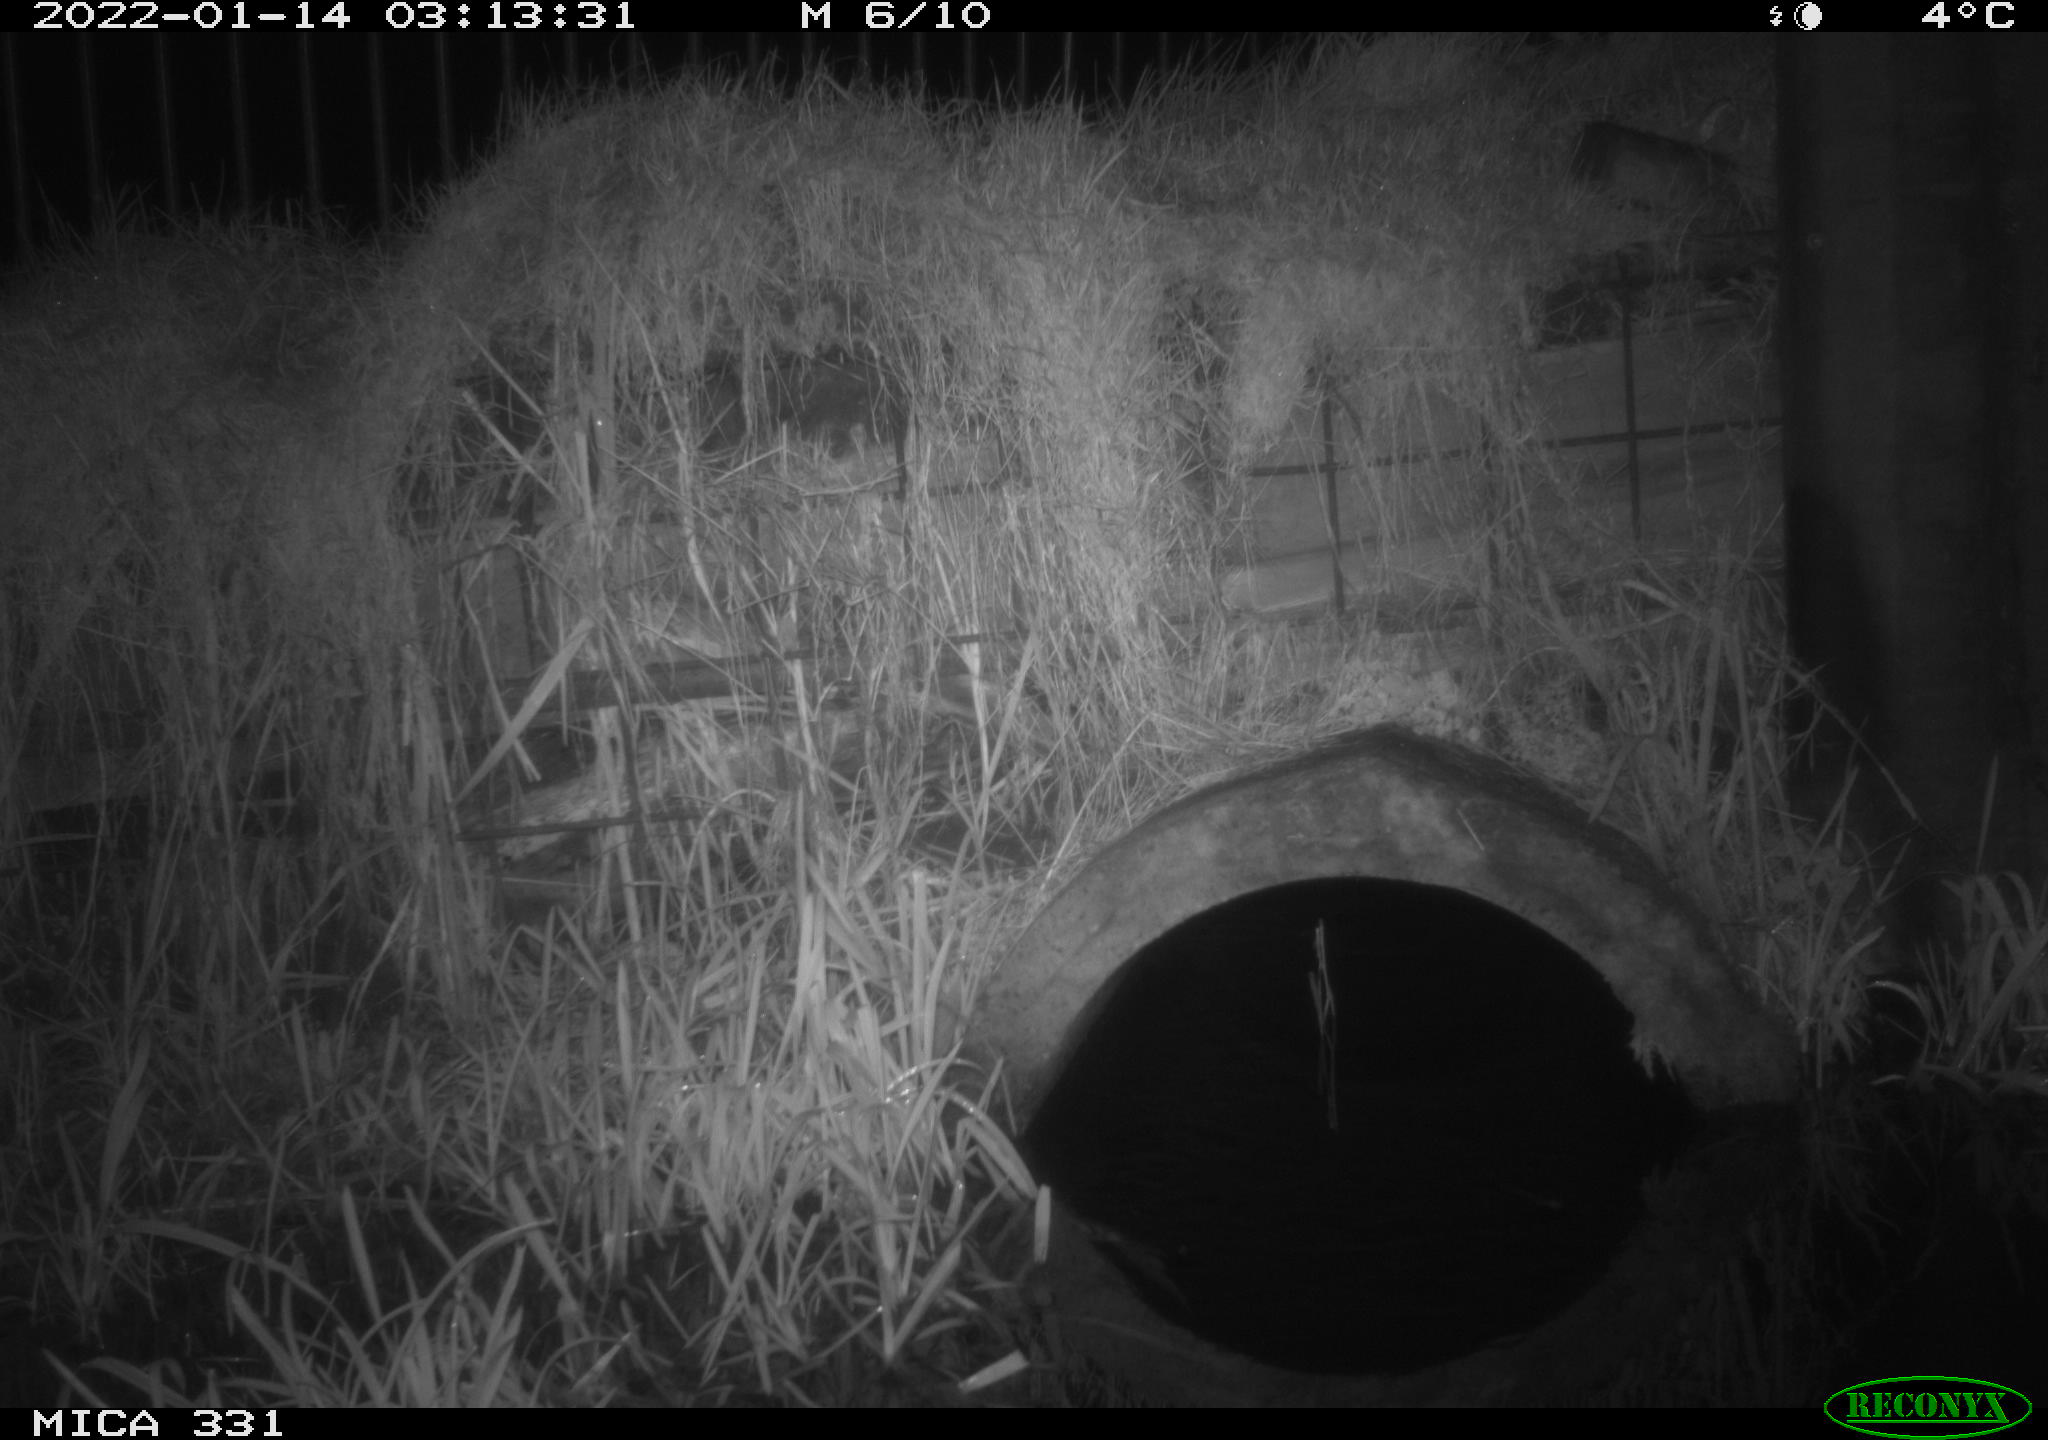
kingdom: Animalia
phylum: Chordata
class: Mammalia
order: Carnivora
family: Canidae
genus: Vulpes
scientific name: Vulpes vulpes
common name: Red fox
